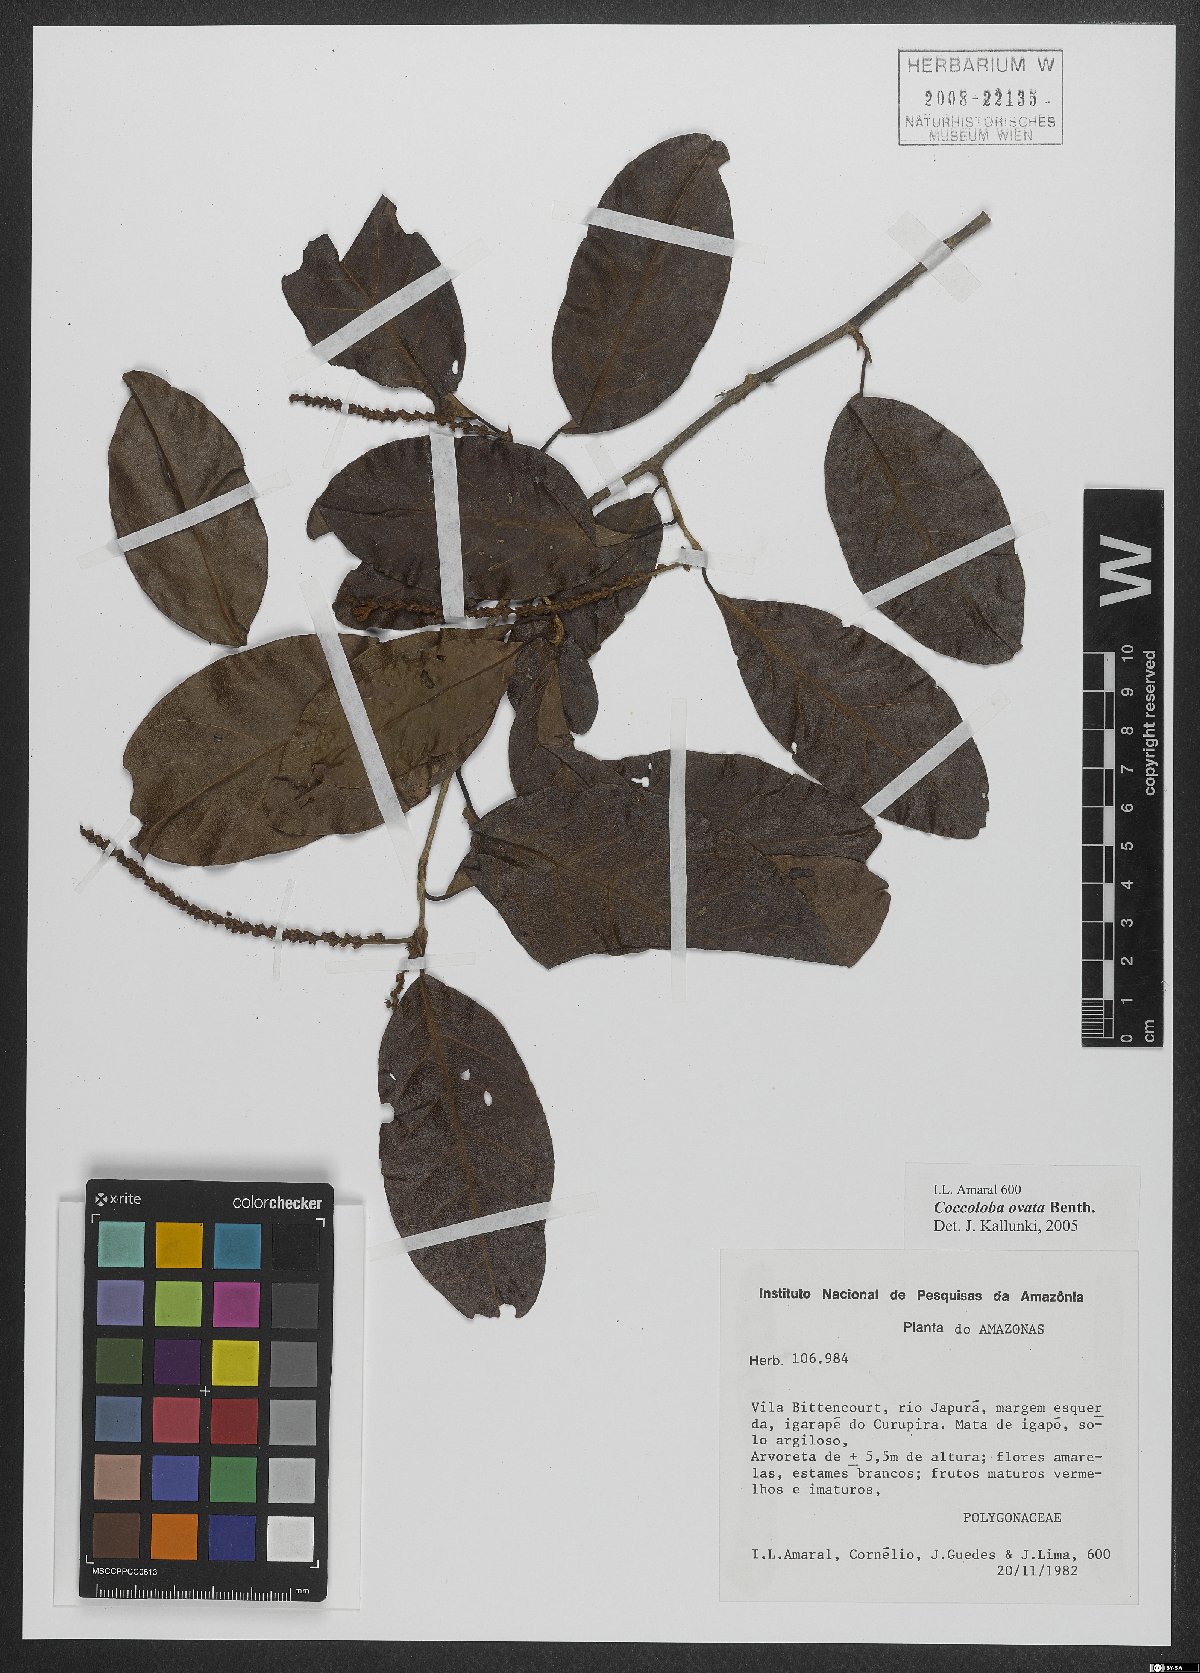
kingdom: Plantae
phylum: Tracheophyta
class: Magnoliopsida
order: Caryophyllales
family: Polygonaceae
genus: Coccoloba
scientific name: Coccoloba ovata
